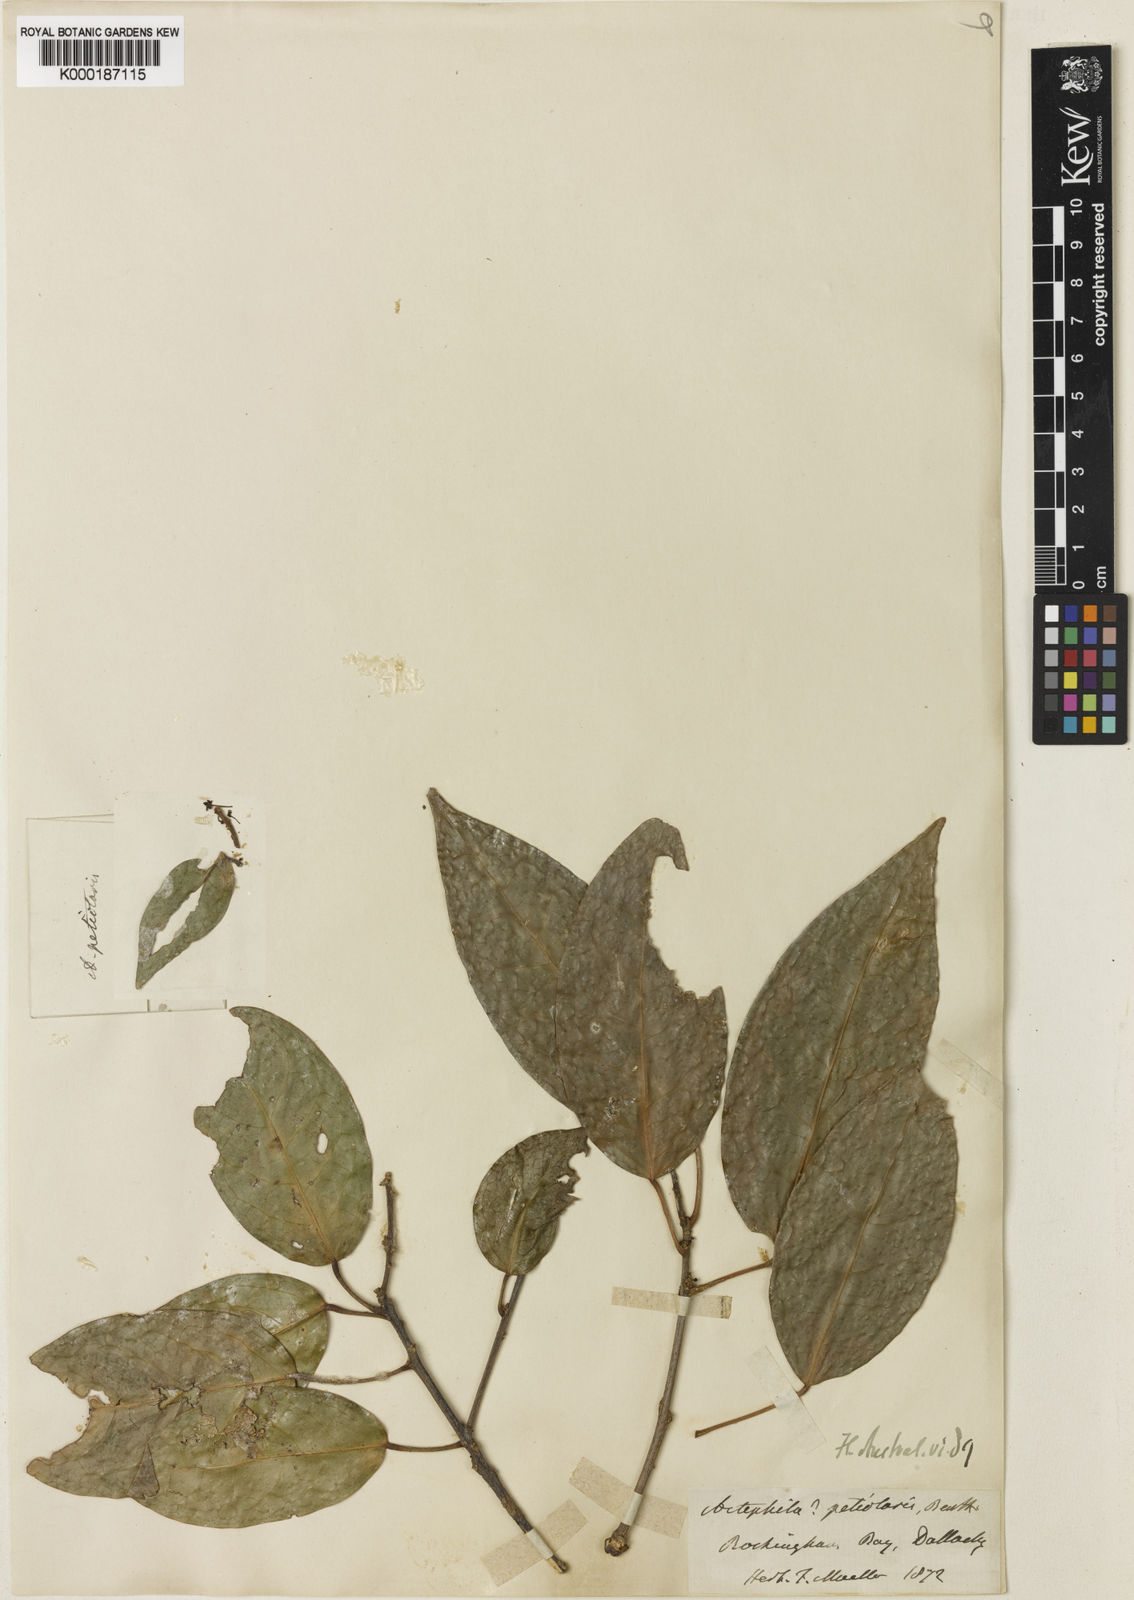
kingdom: Plantae
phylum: Tracheophyta
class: Magnoliopsida
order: Malpighiales
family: Phyllanthaceae
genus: Actephila
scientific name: Actephila petiolaris
